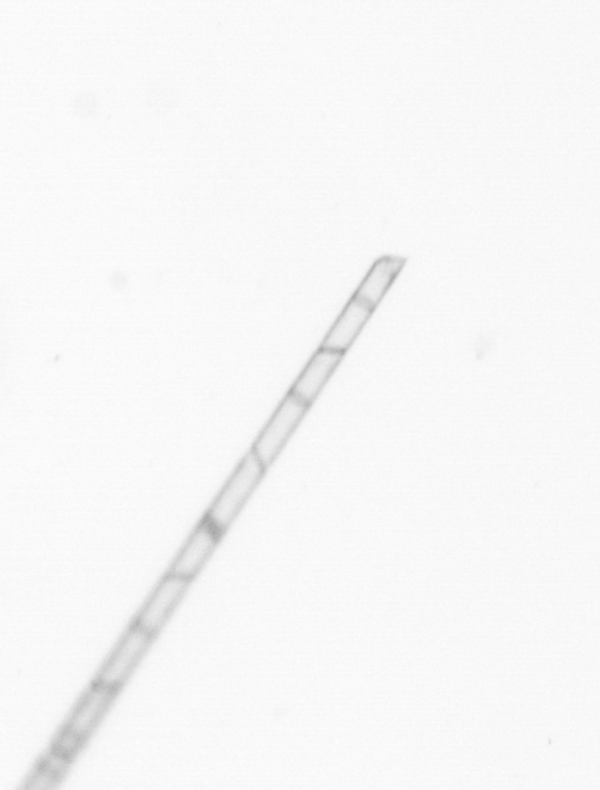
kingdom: Chromista
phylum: Ochrophyta
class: Bacillariophyceae
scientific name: Bacillariophyceae
